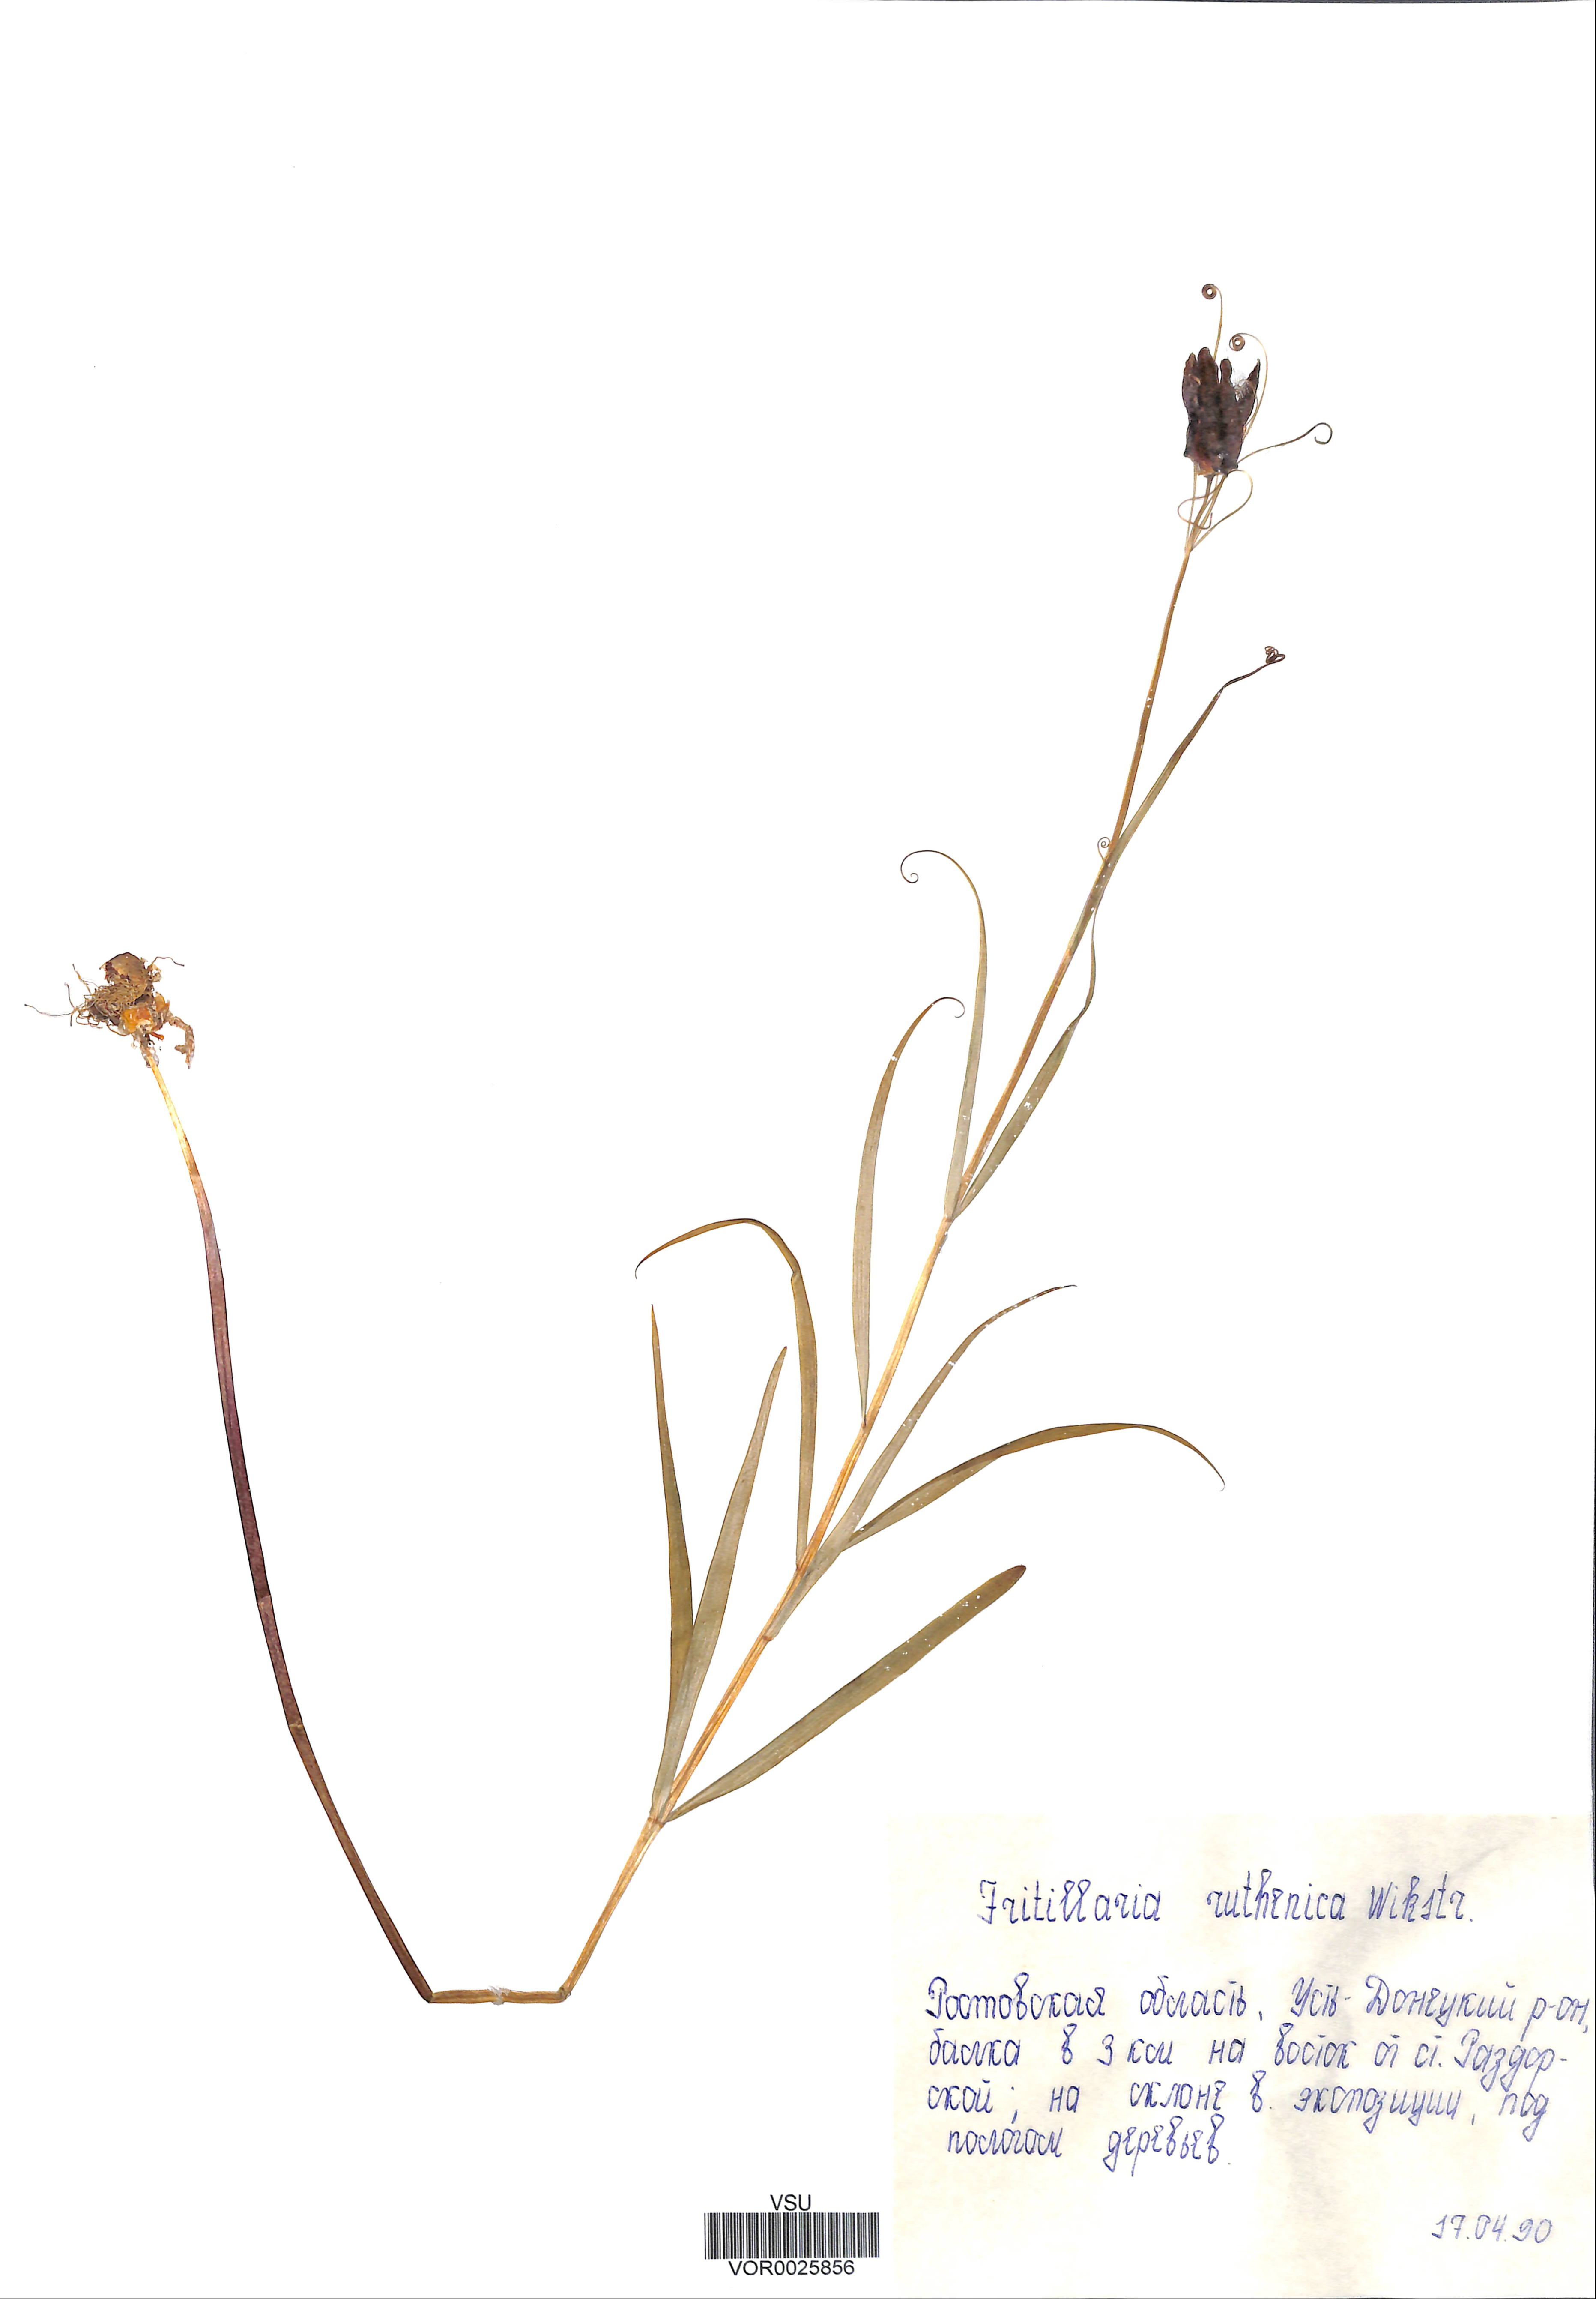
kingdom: Plantae
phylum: Tracheophyta
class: Liliopsida
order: Liliales
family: Liliaceae
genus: Fritillaria
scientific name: Fritillaria ruthenica
